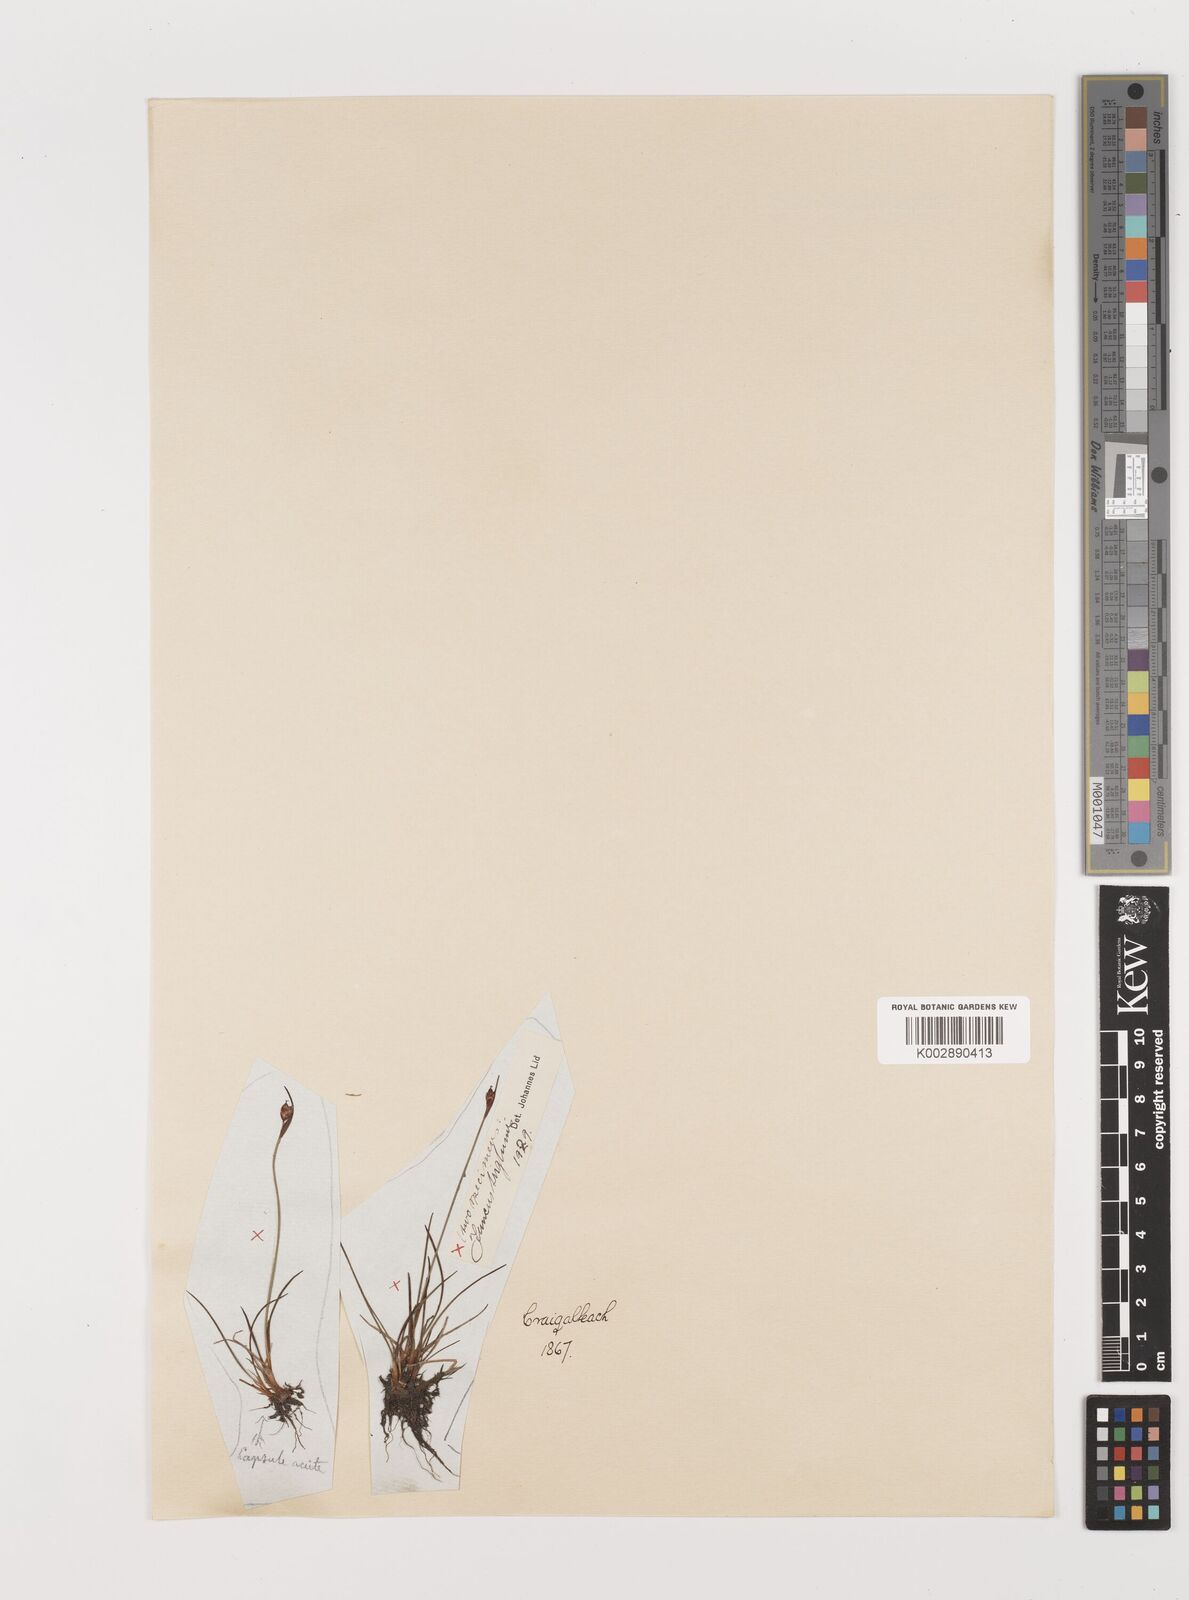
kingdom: Plantae
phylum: Tracheophyta
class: Liliopsida
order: Poales
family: Juncaceae
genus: Juncus
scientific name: Juncus triglumis
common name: Three-flowered rush
